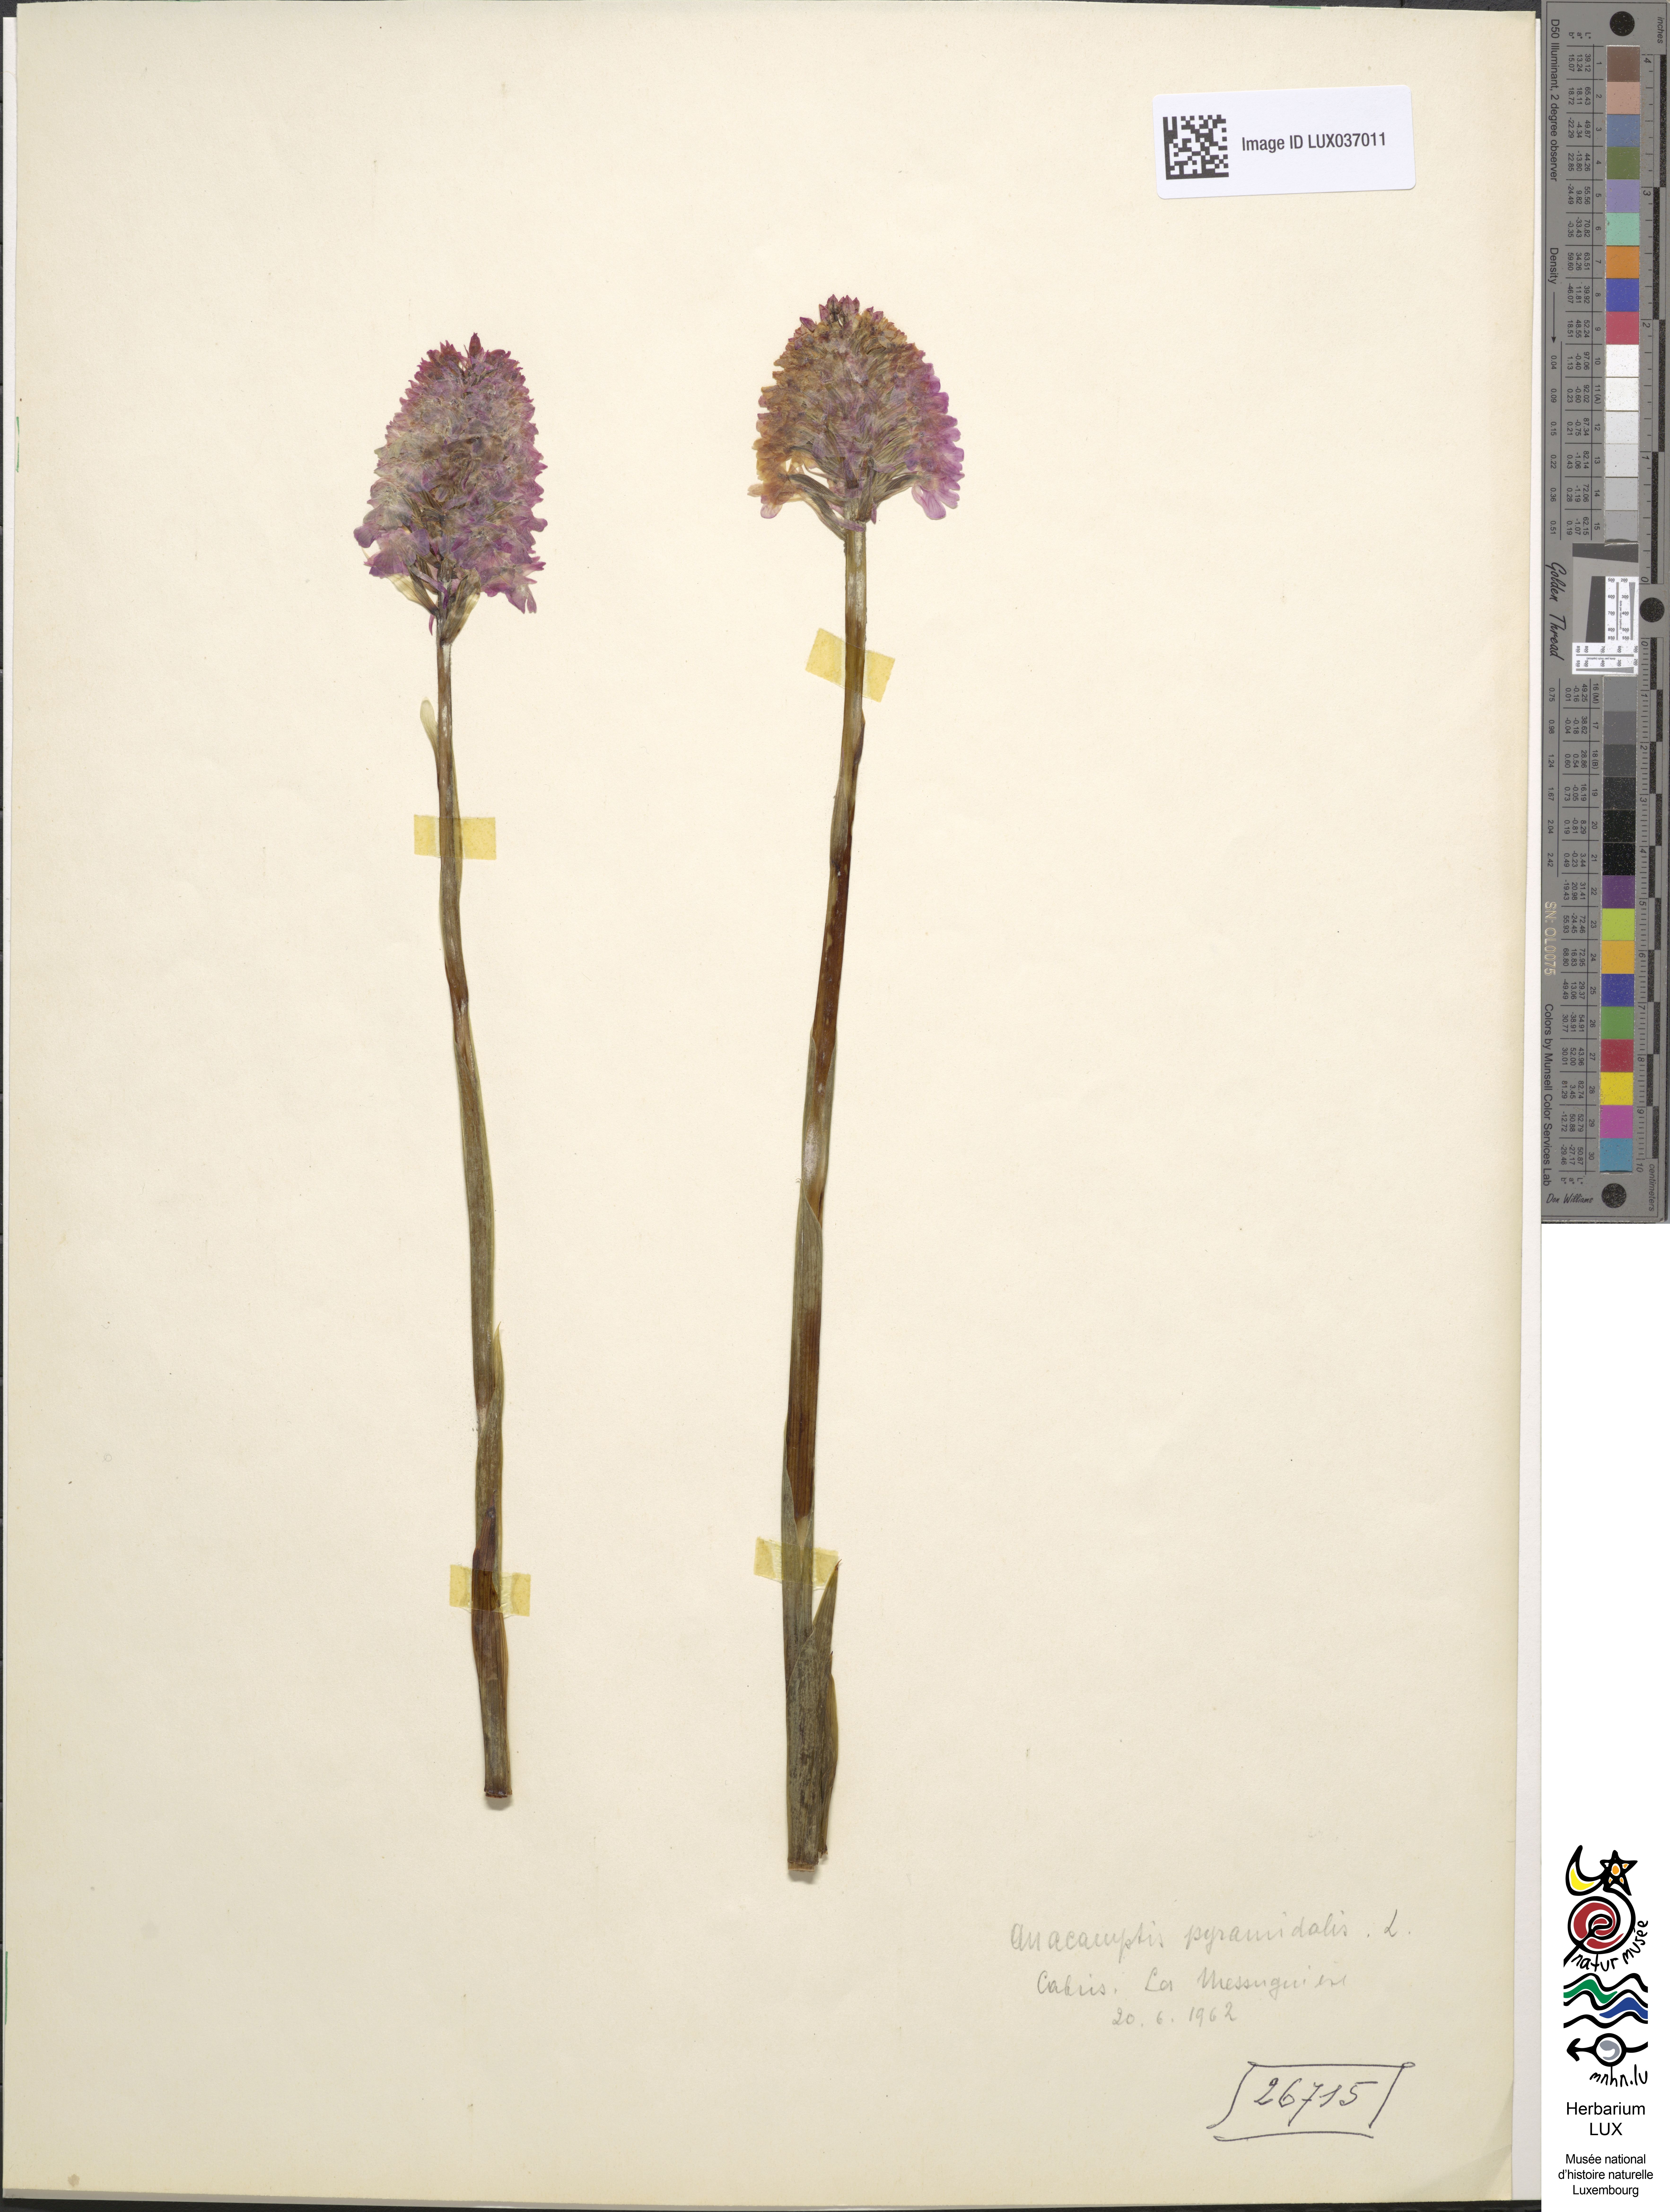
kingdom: Plantae
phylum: Tracheophyta
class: Liliopsida
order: Asparagales
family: Orchidaceae
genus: Anacamptis
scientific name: Anacamptis pyramidalis
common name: Pyramidal orchid
